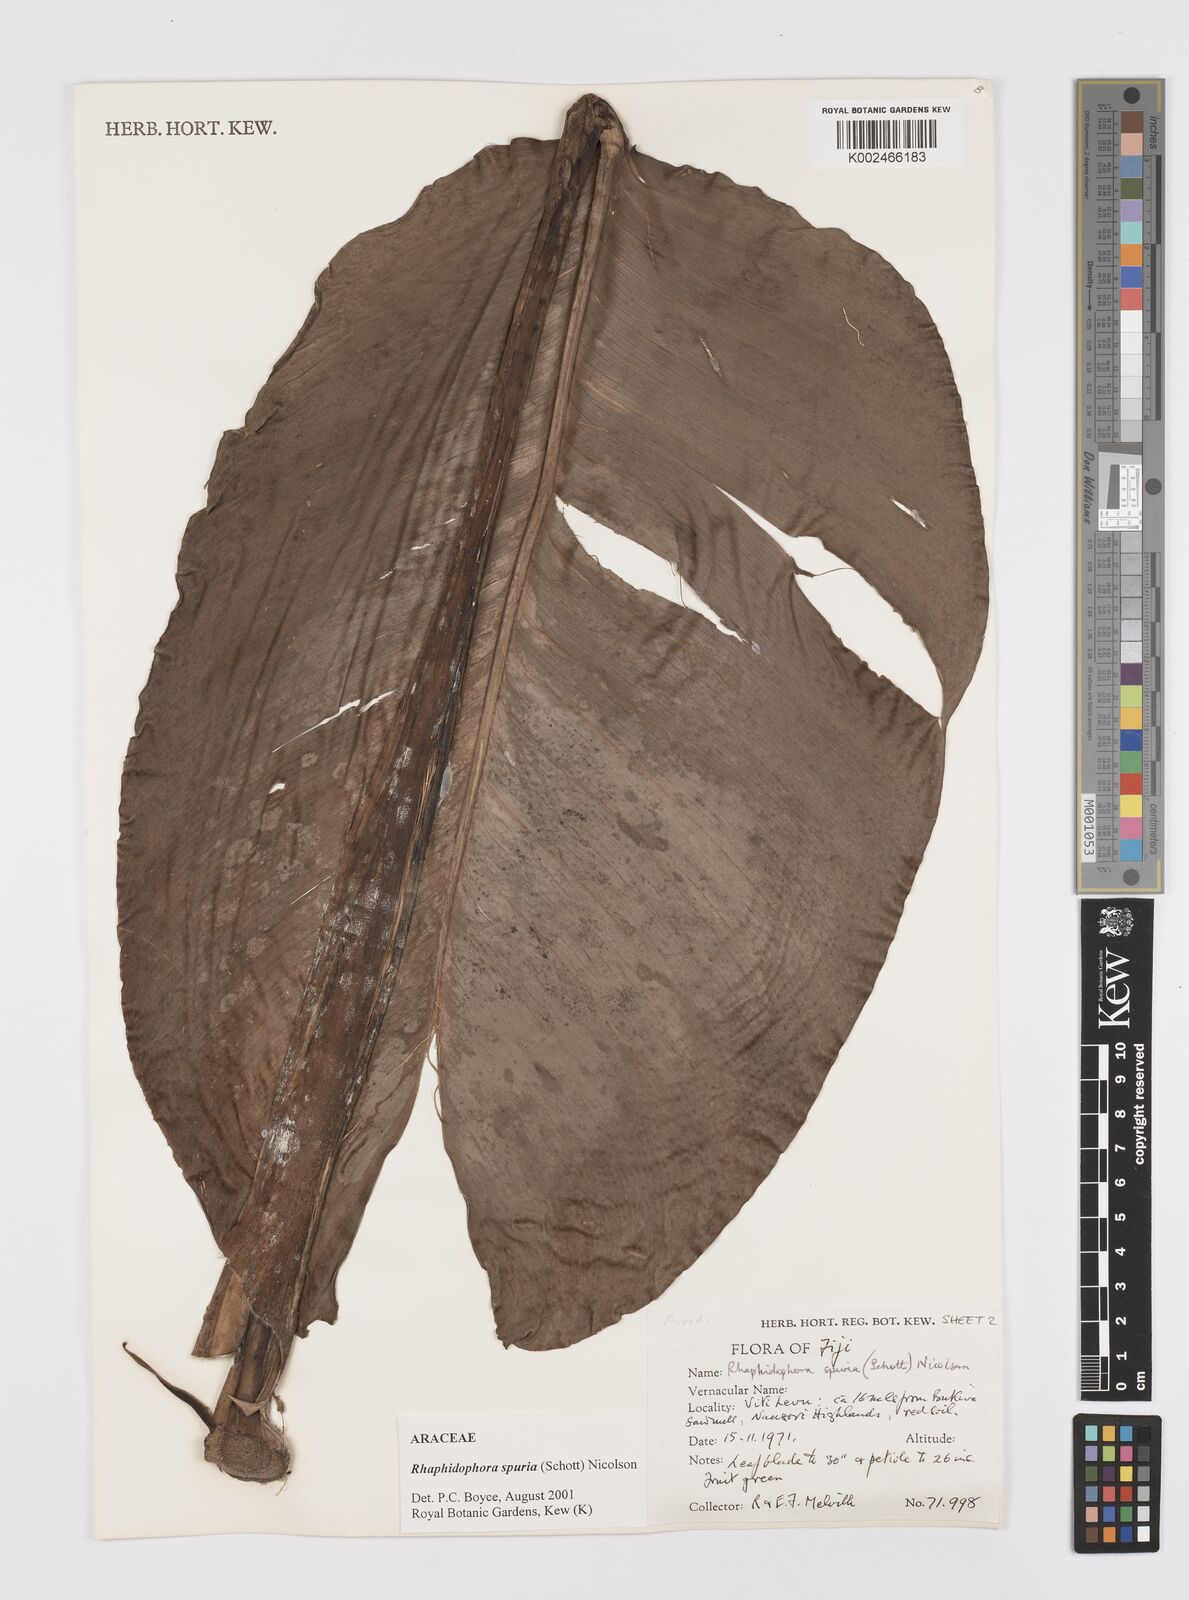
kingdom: Plantae
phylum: Tracheophyta
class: Liliopsida
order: Alismatales
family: Araceae
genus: Rhaphidophora
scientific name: Rhaphidophora spuria
